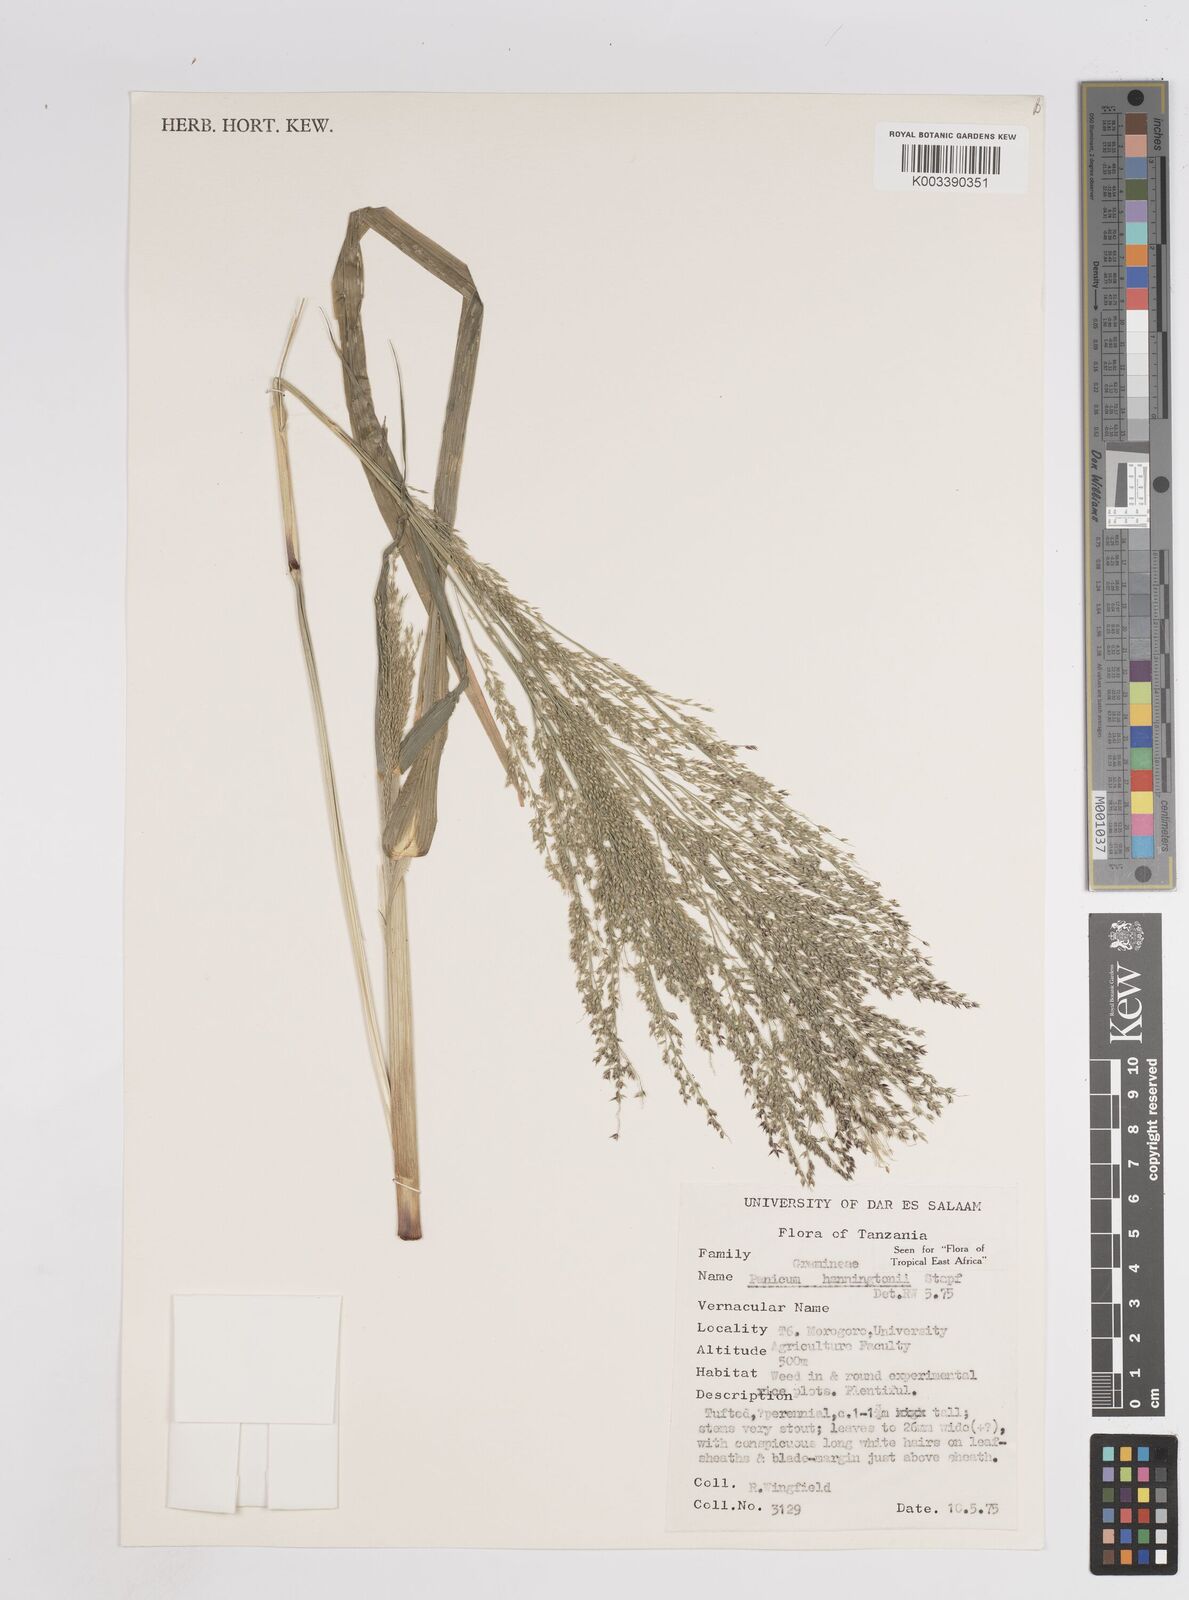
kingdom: Plantae
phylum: Tracheophyta
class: Liliopsida
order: Poales
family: Poaceae
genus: Panicum
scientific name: Panicum hanningtonii
